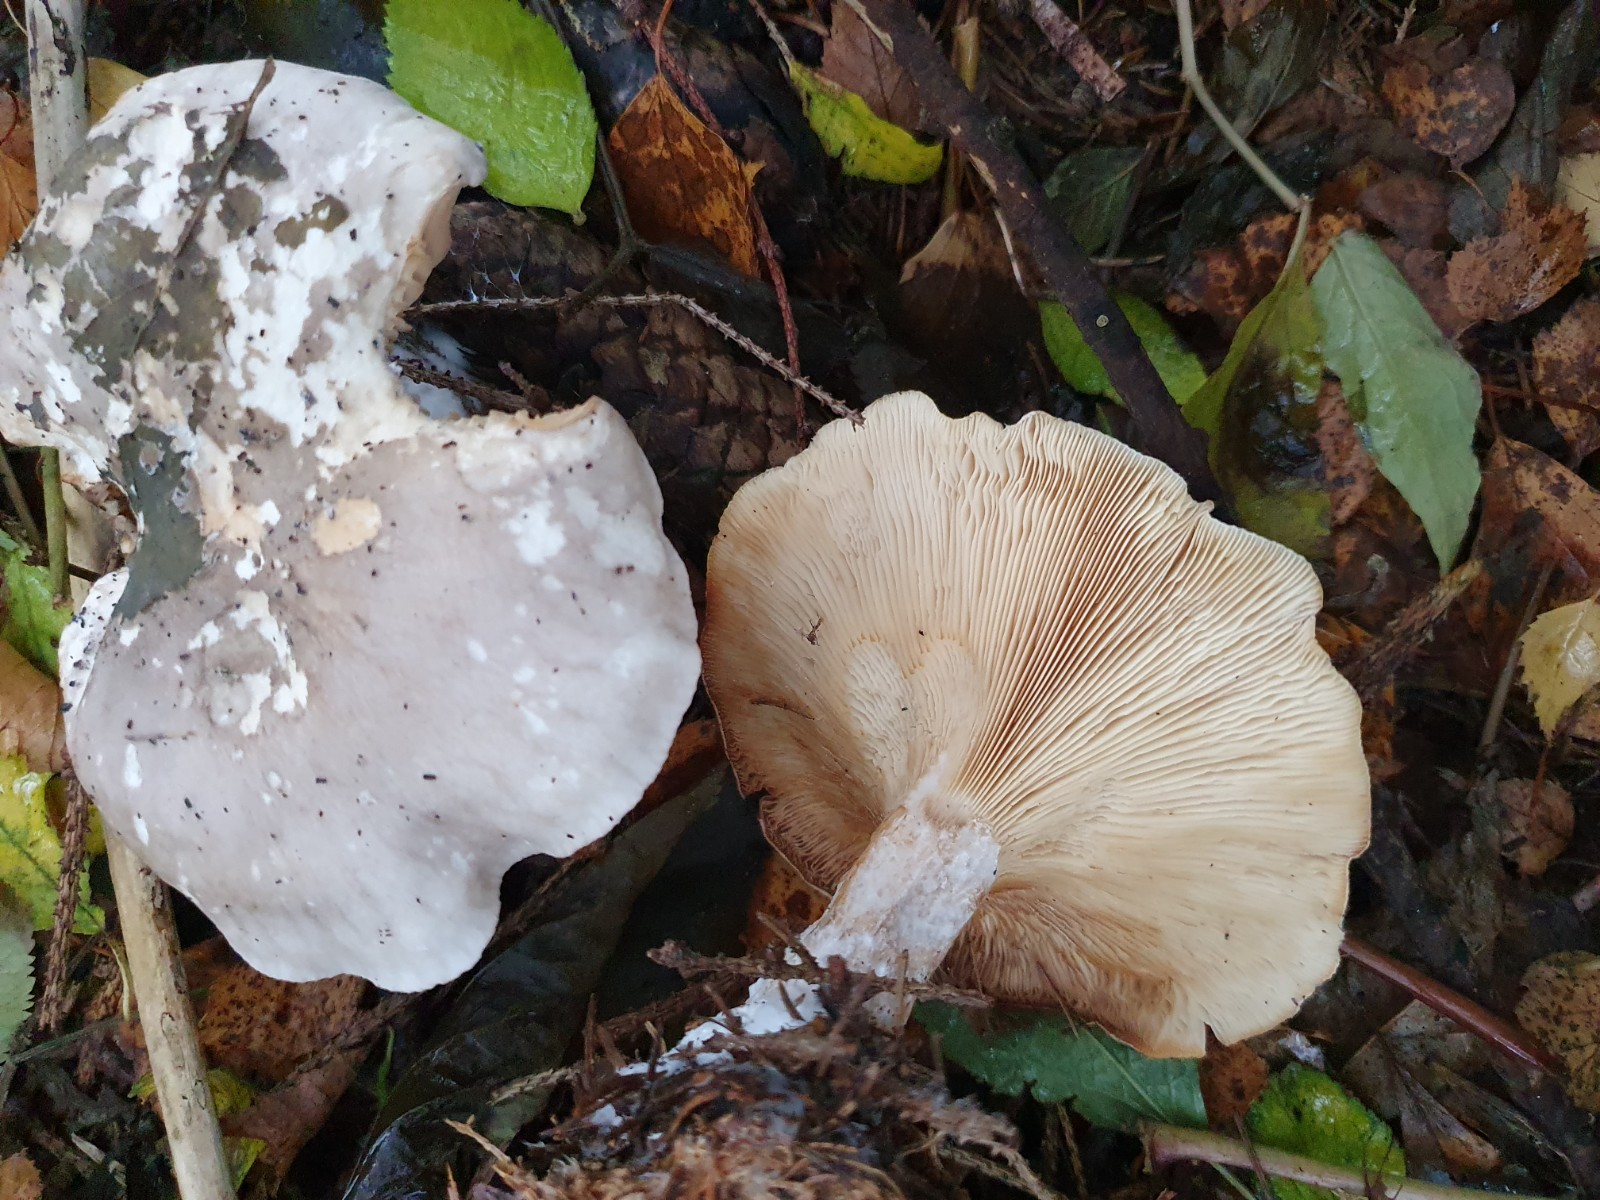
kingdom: Fungi
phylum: Basidiomycota
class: Agaricomycetes
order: Agaricales
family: Tricholomataceae
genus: Clitocybe
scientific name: Clitocybe nebularis
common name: tåge-tragthat
